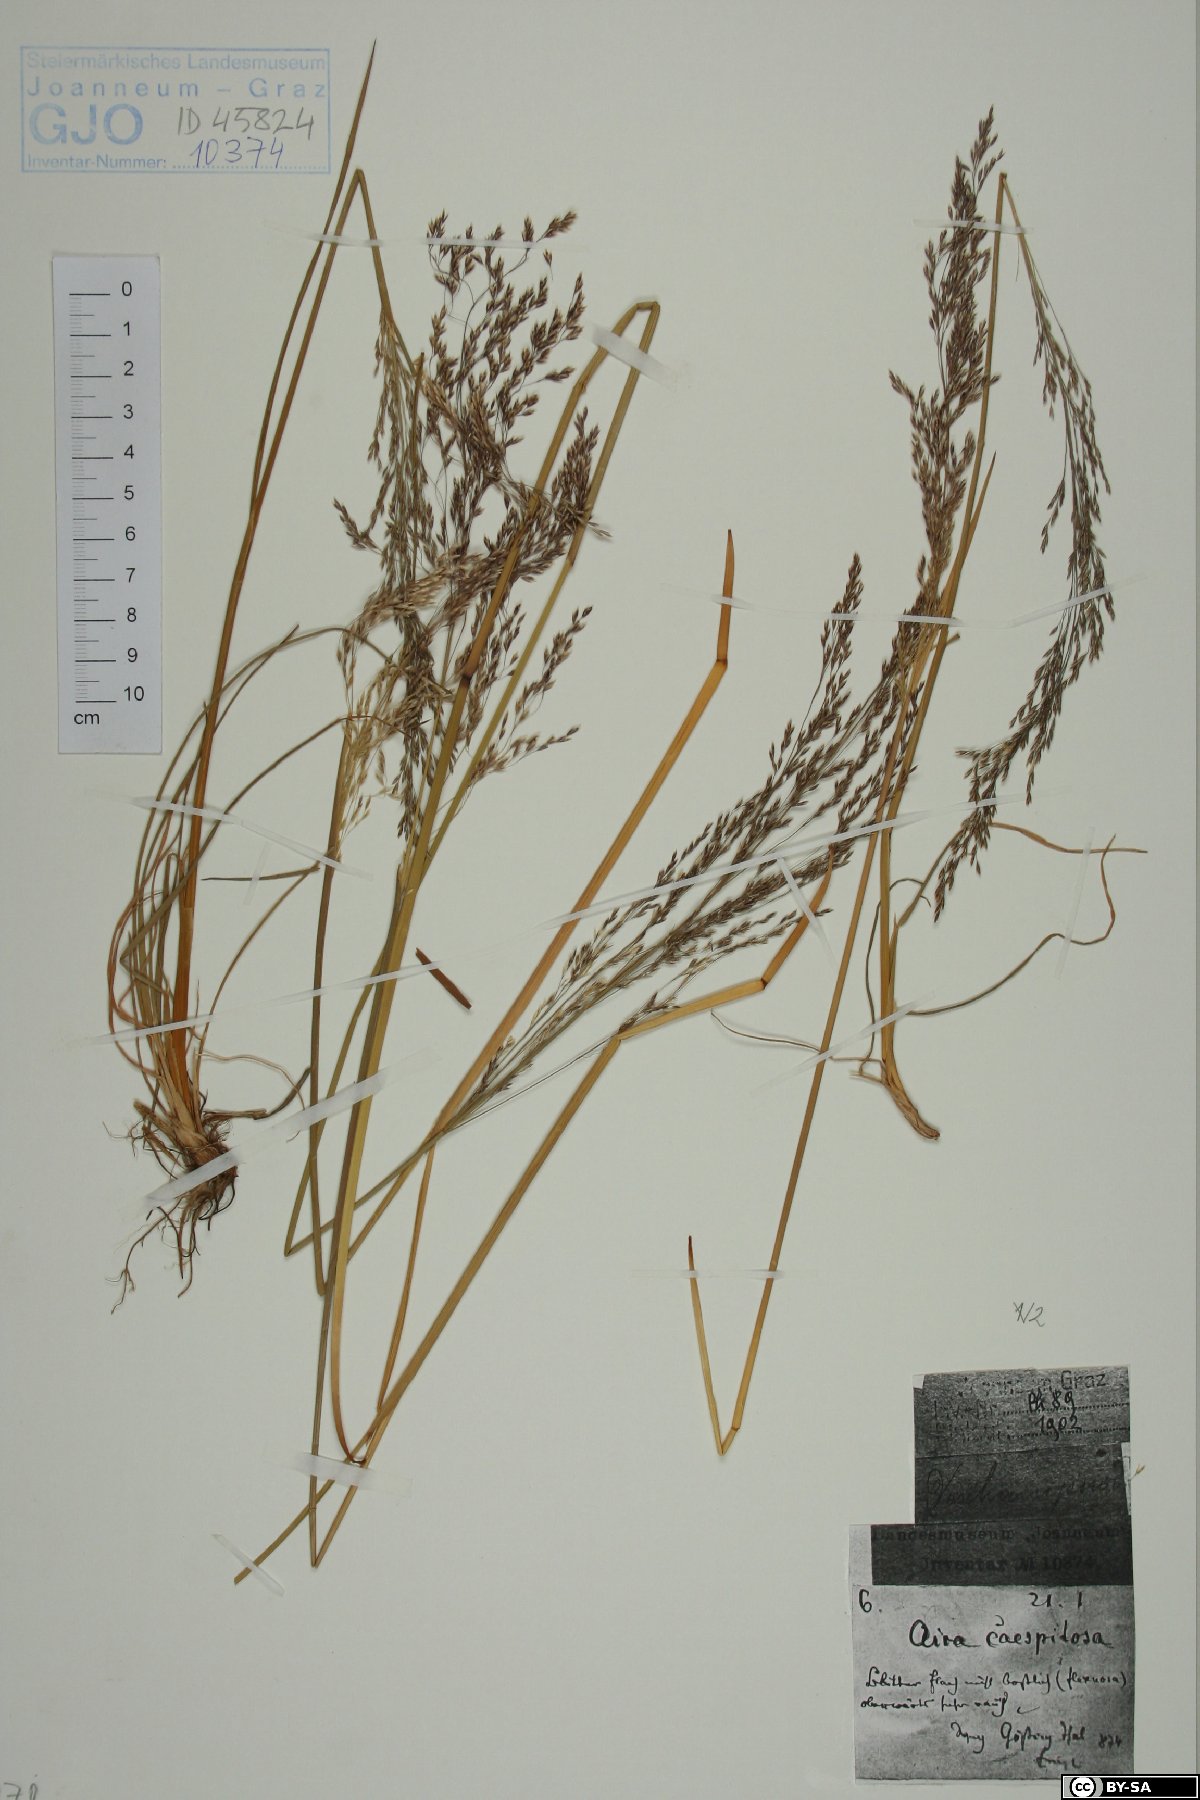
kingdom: Plantae
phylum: Tracheophyta
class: Liliopsida
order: Poales
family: Poaceae
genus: Deschampsia
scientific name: Deschampsia cespitosa
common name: Tufted hair-grass
